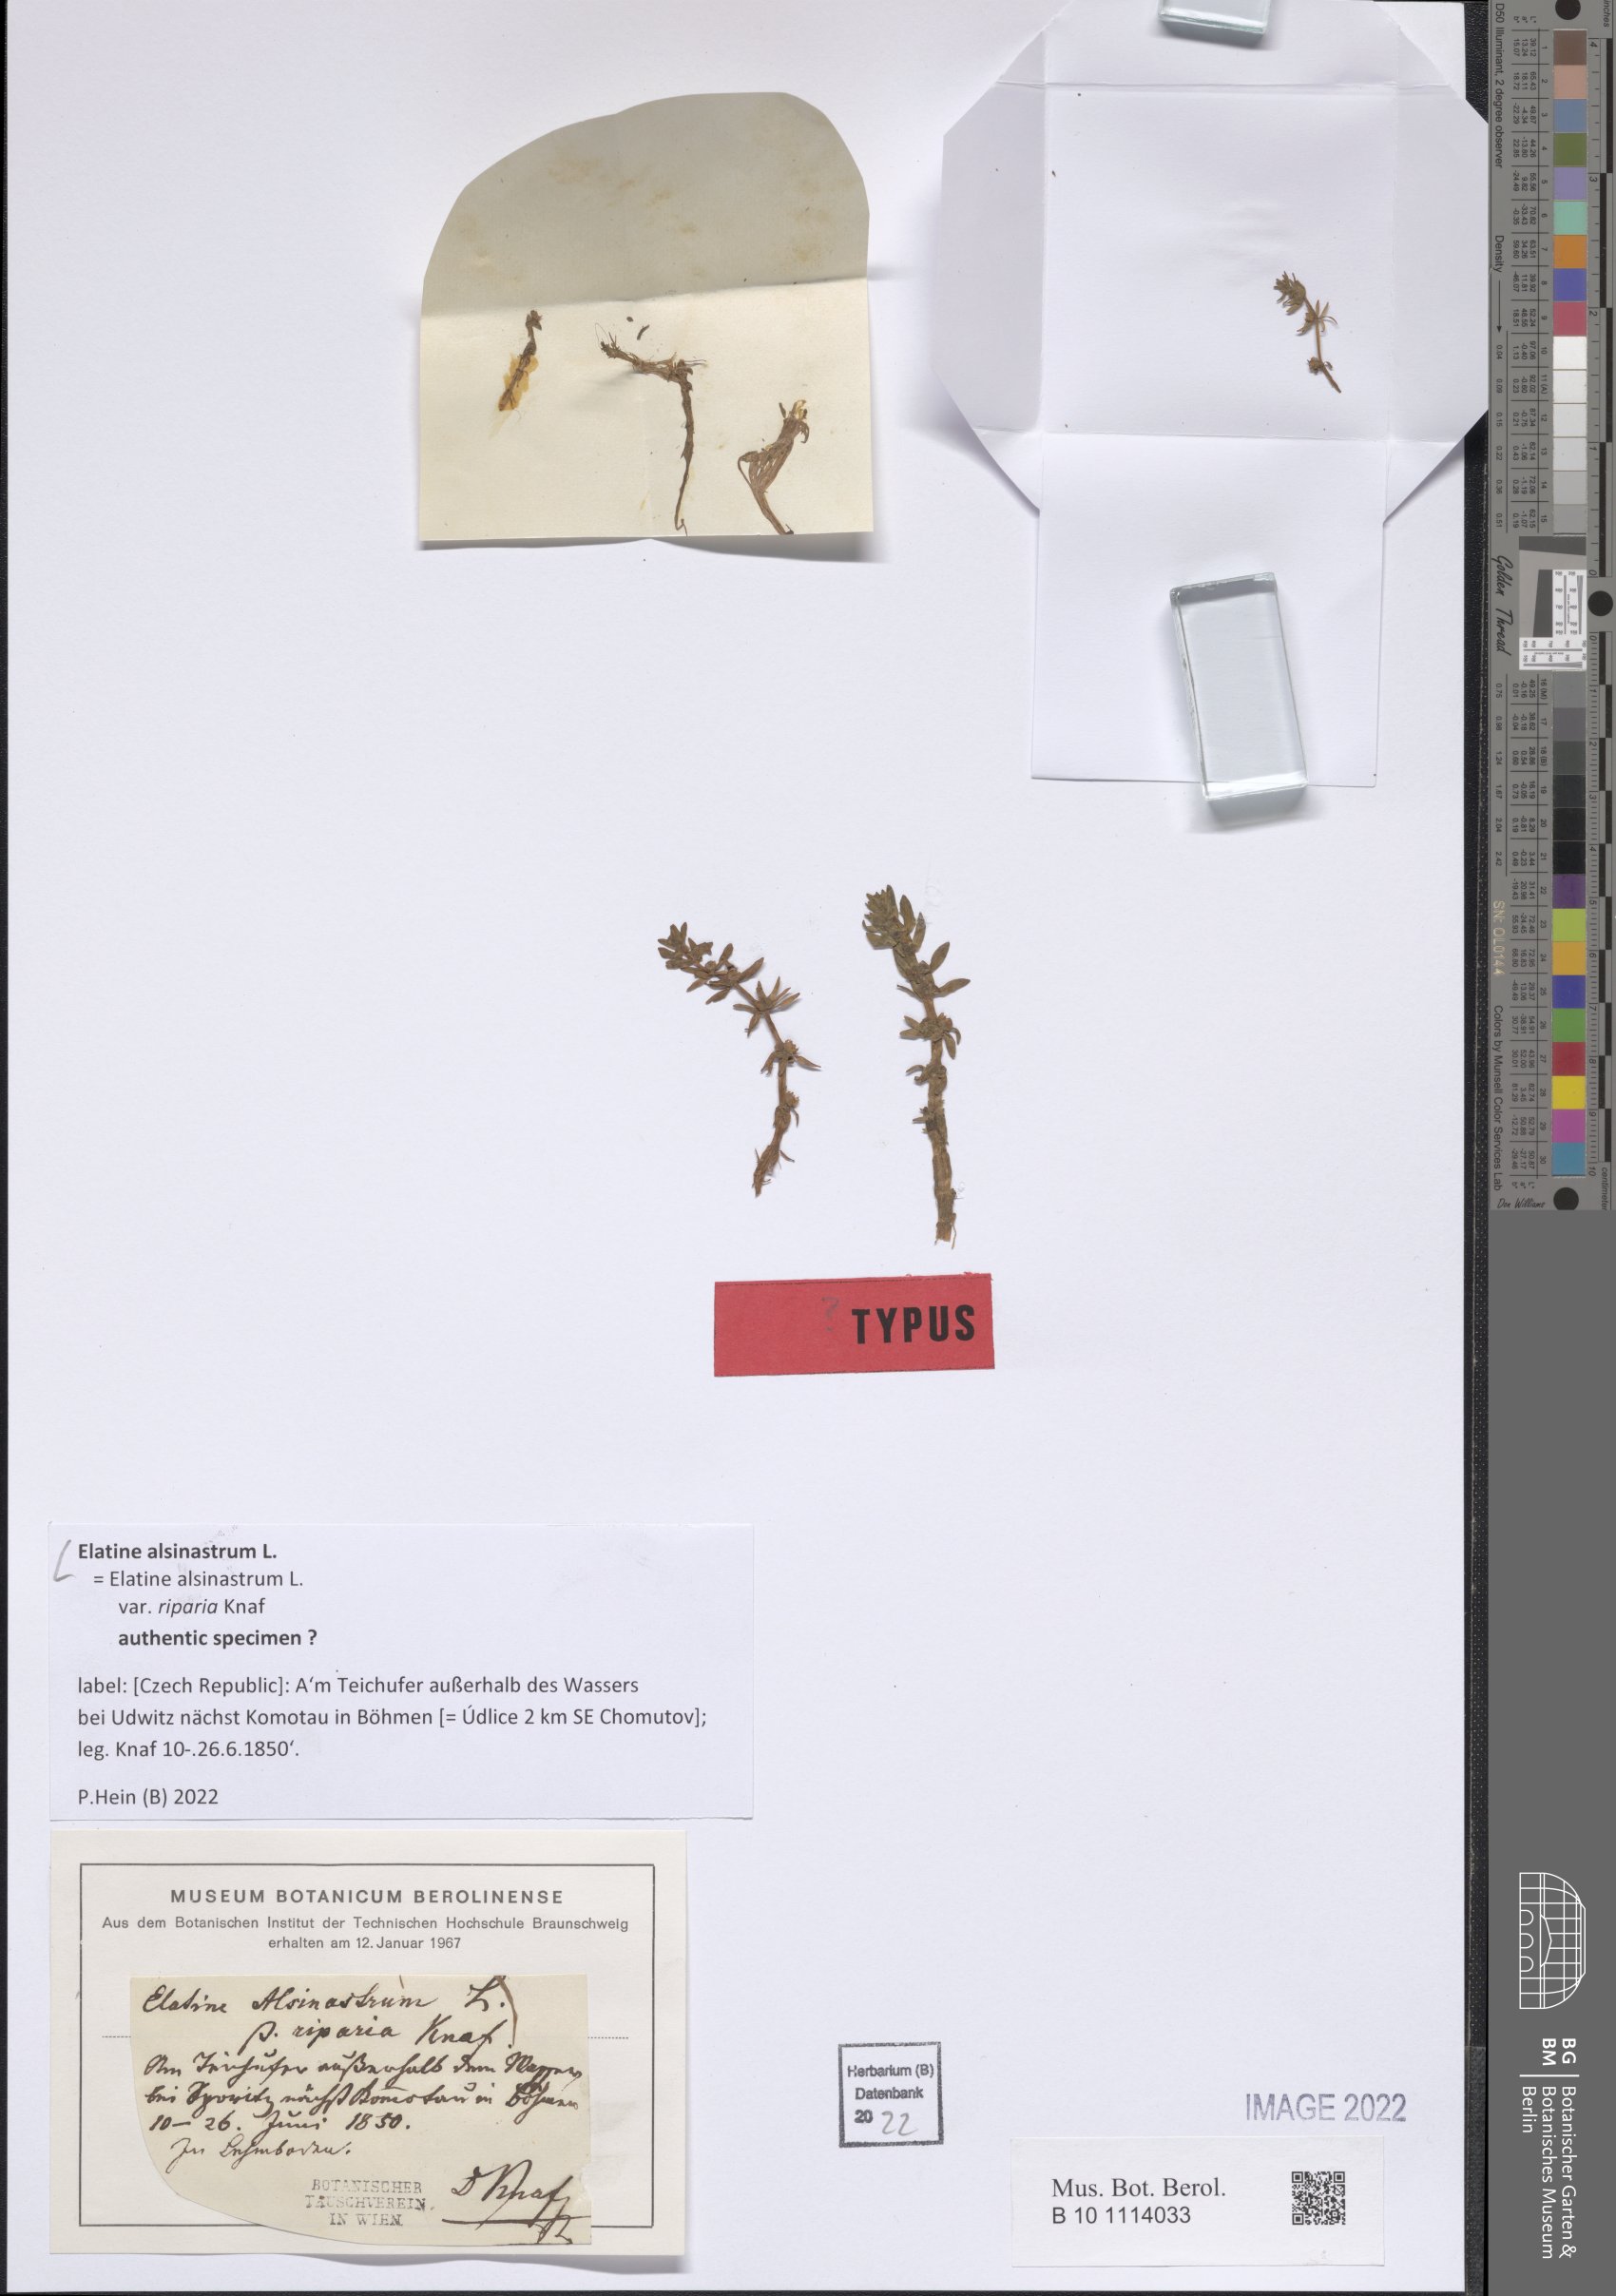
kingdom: Plantae
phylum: Tracheophyta
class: Magnoliopsida
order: Malpighiales
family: Elatinaceae
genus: Elatine
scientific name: Elatine alsinastrum
